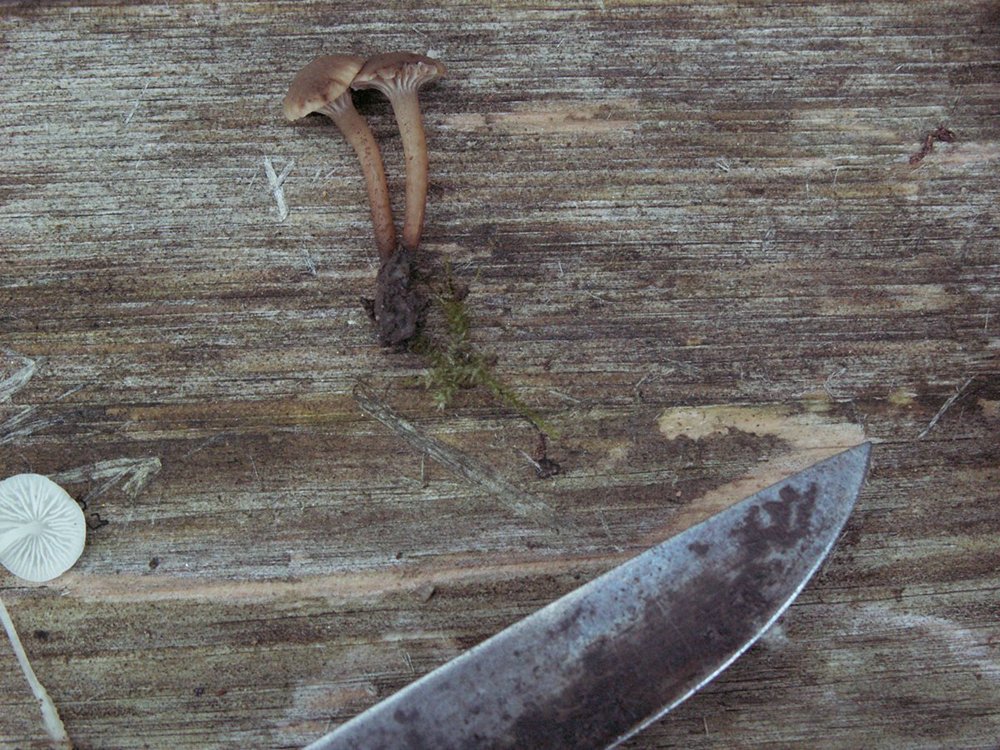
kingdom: Fungi
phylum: Basidiomycota
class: Agaricomycetes
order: Agaricales
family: Clavariaceae
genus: Hodophilus
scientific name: Hodophilus foetens
